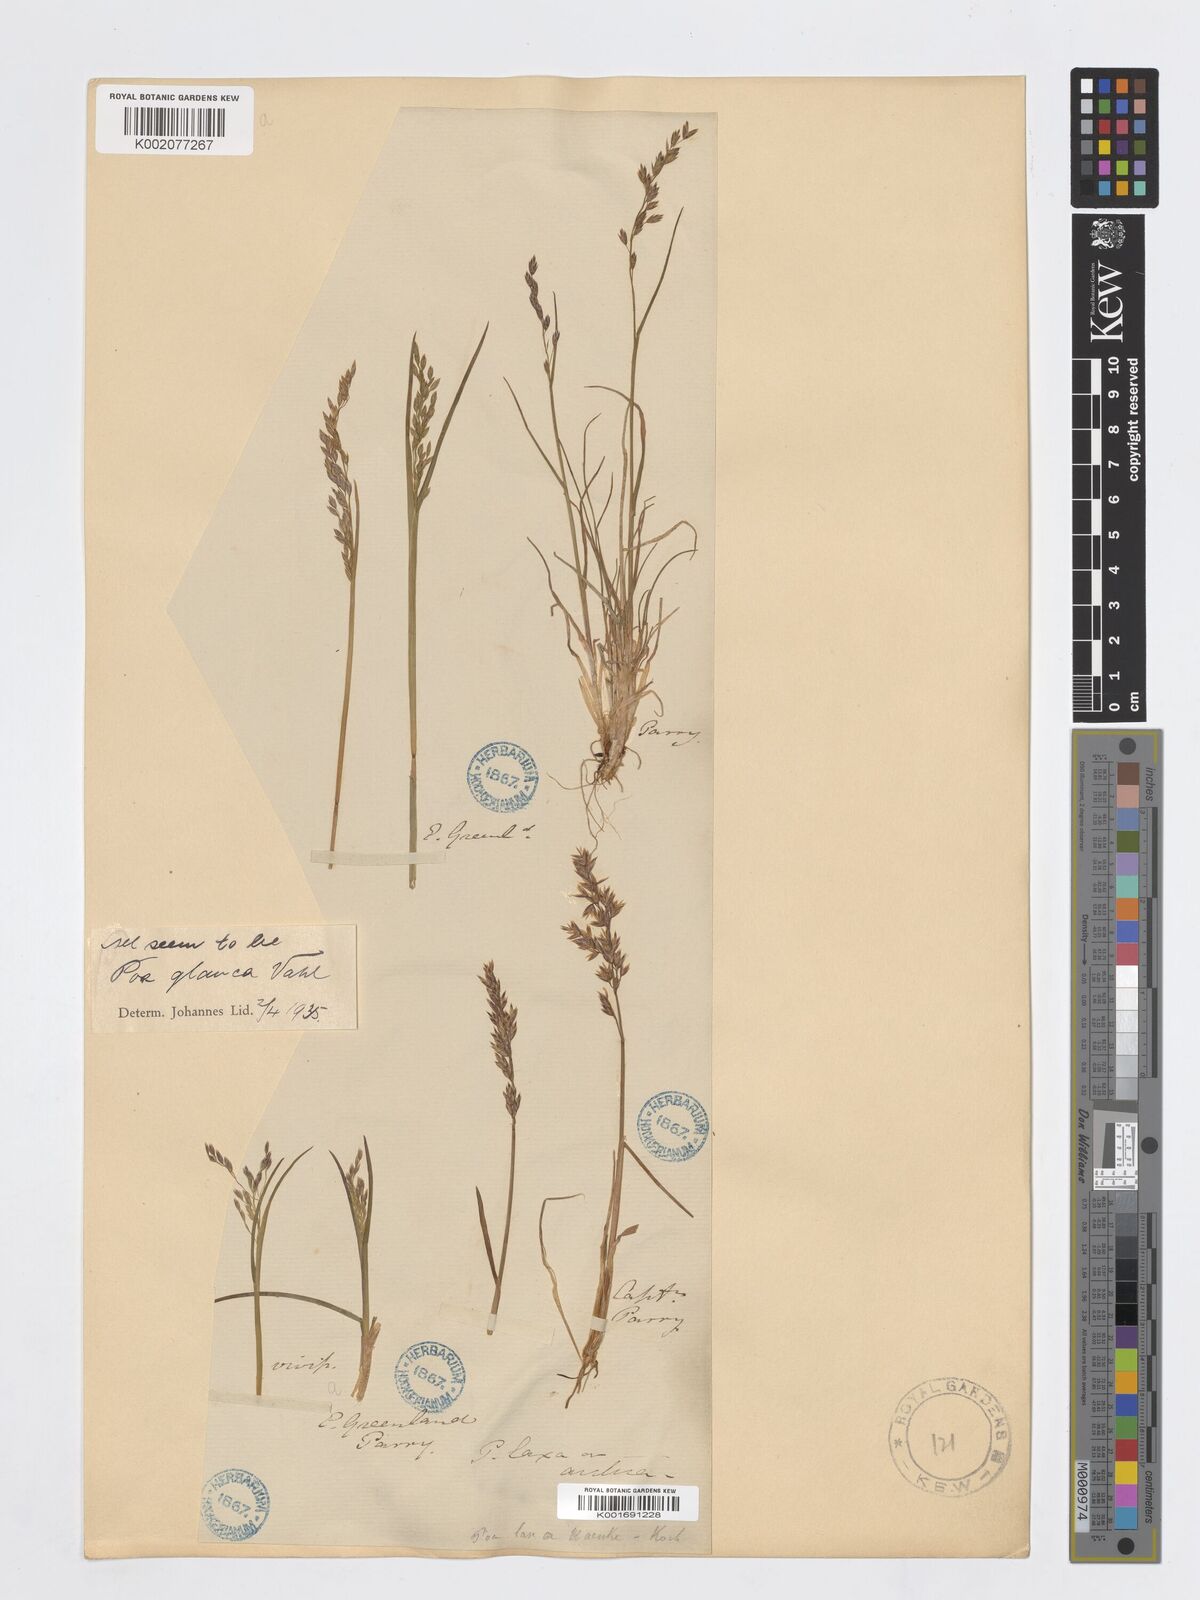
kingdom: Plantae
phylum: Tracheophyta
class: Liliopsida
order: Poales
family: Poaceae
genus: Poa
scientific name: Poa glauca
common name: Glaucous bluegrass
